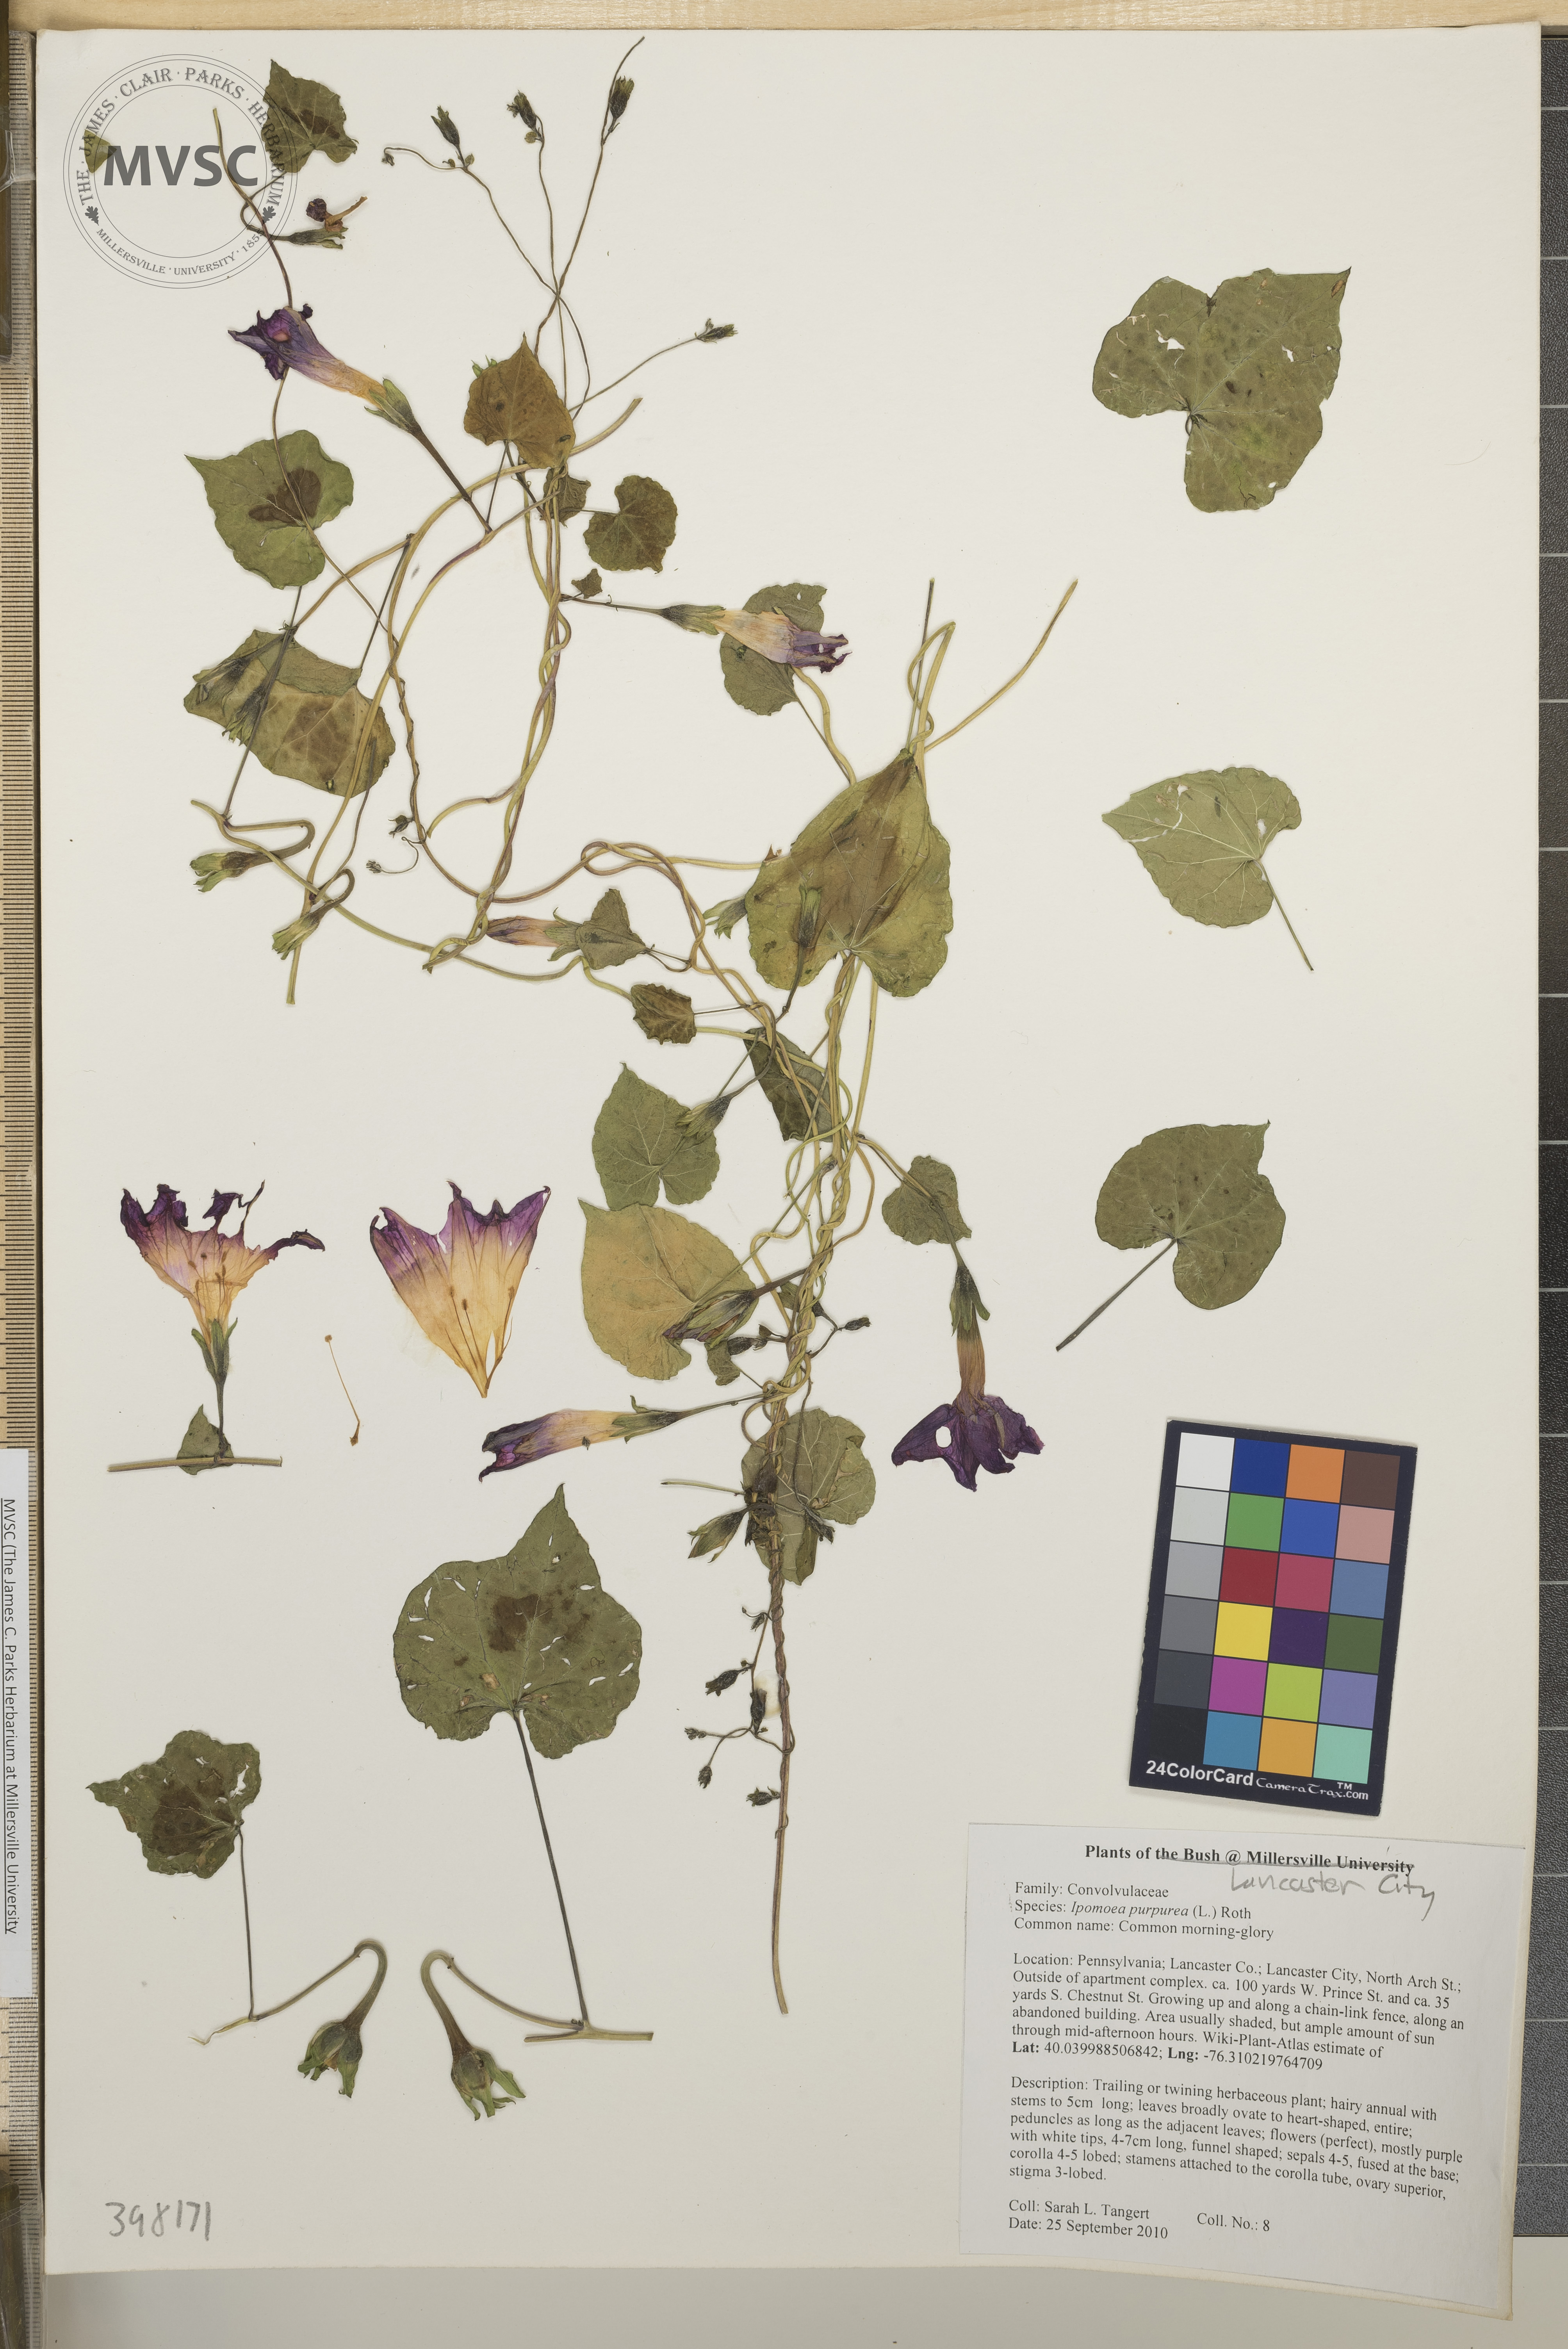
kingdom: Plantae
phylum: Tracheophyta
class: Magnoliopsida
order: Solanales
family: Convolvulaceae
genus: Ipomoea
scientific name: Ipomoea purpurea
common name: Common morning-glory
